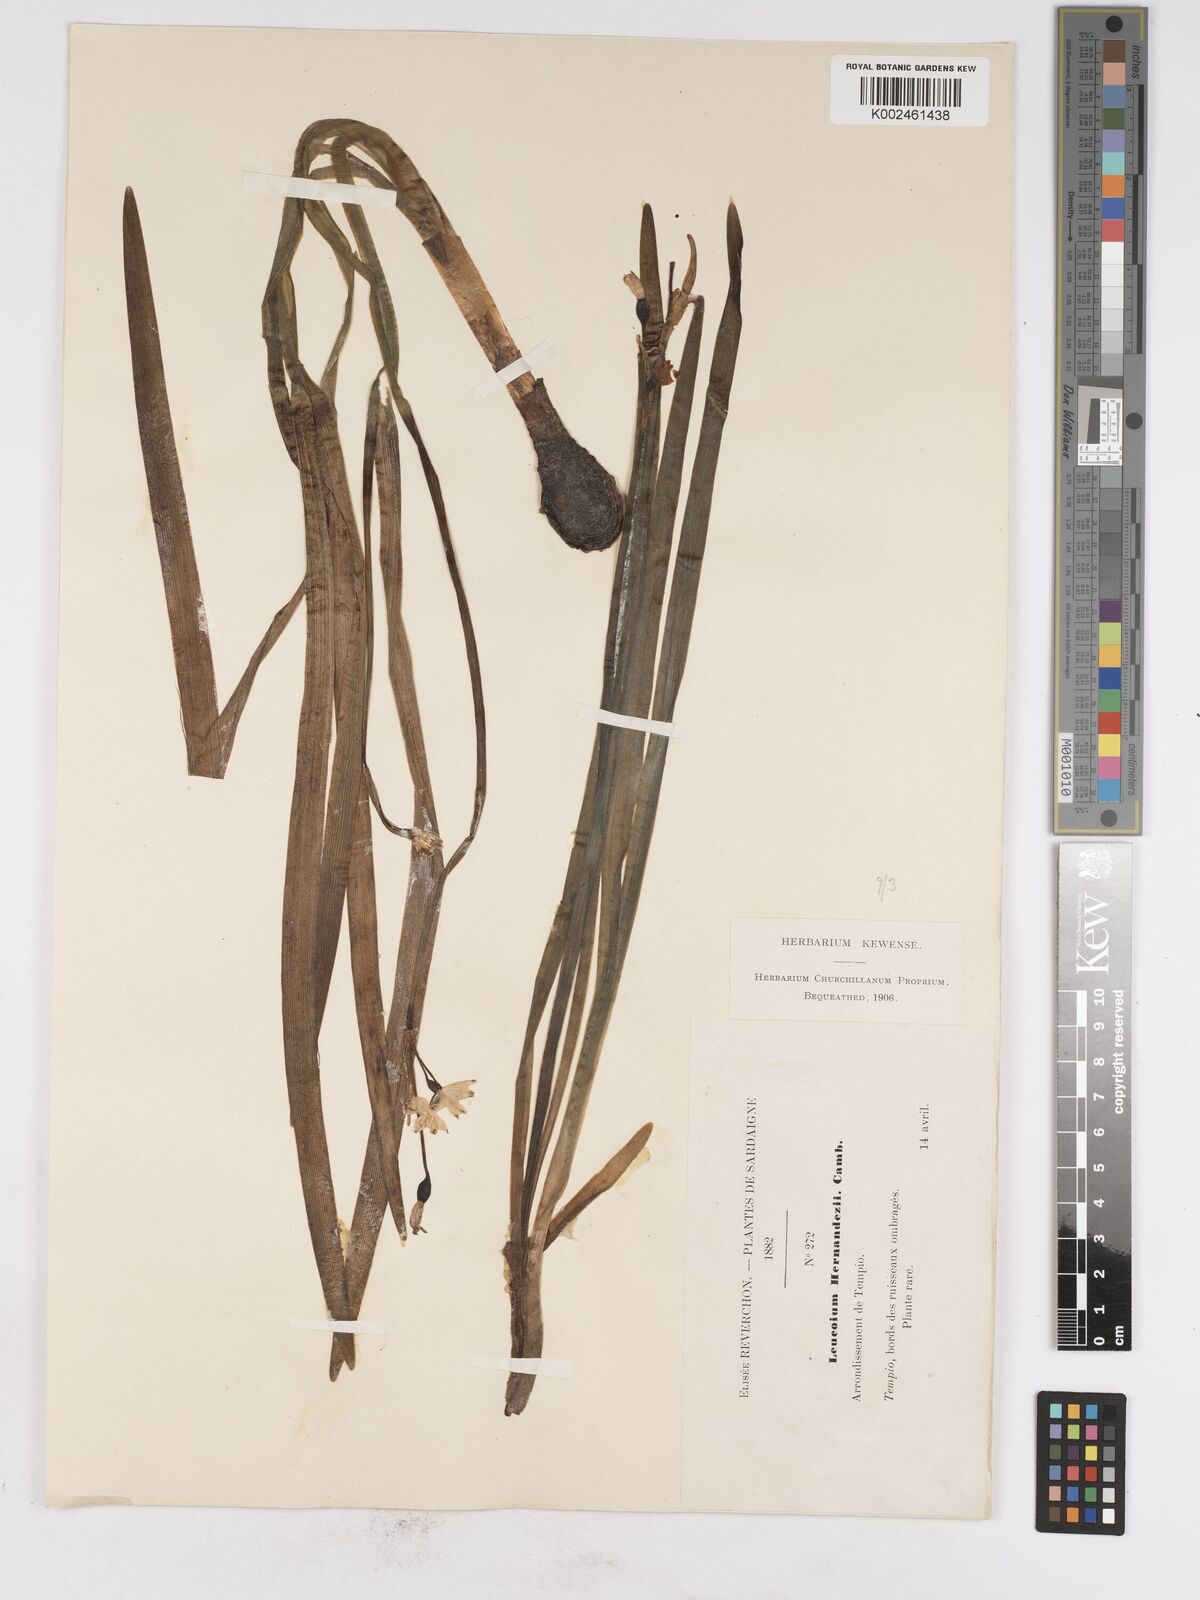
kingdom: Plantae
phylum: Tracheophyta
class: Liliopsida
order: Asparagales
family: Amaryllidaceae
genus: Leucojum
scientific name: Leucojum aestivum
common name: Summer snowflake
